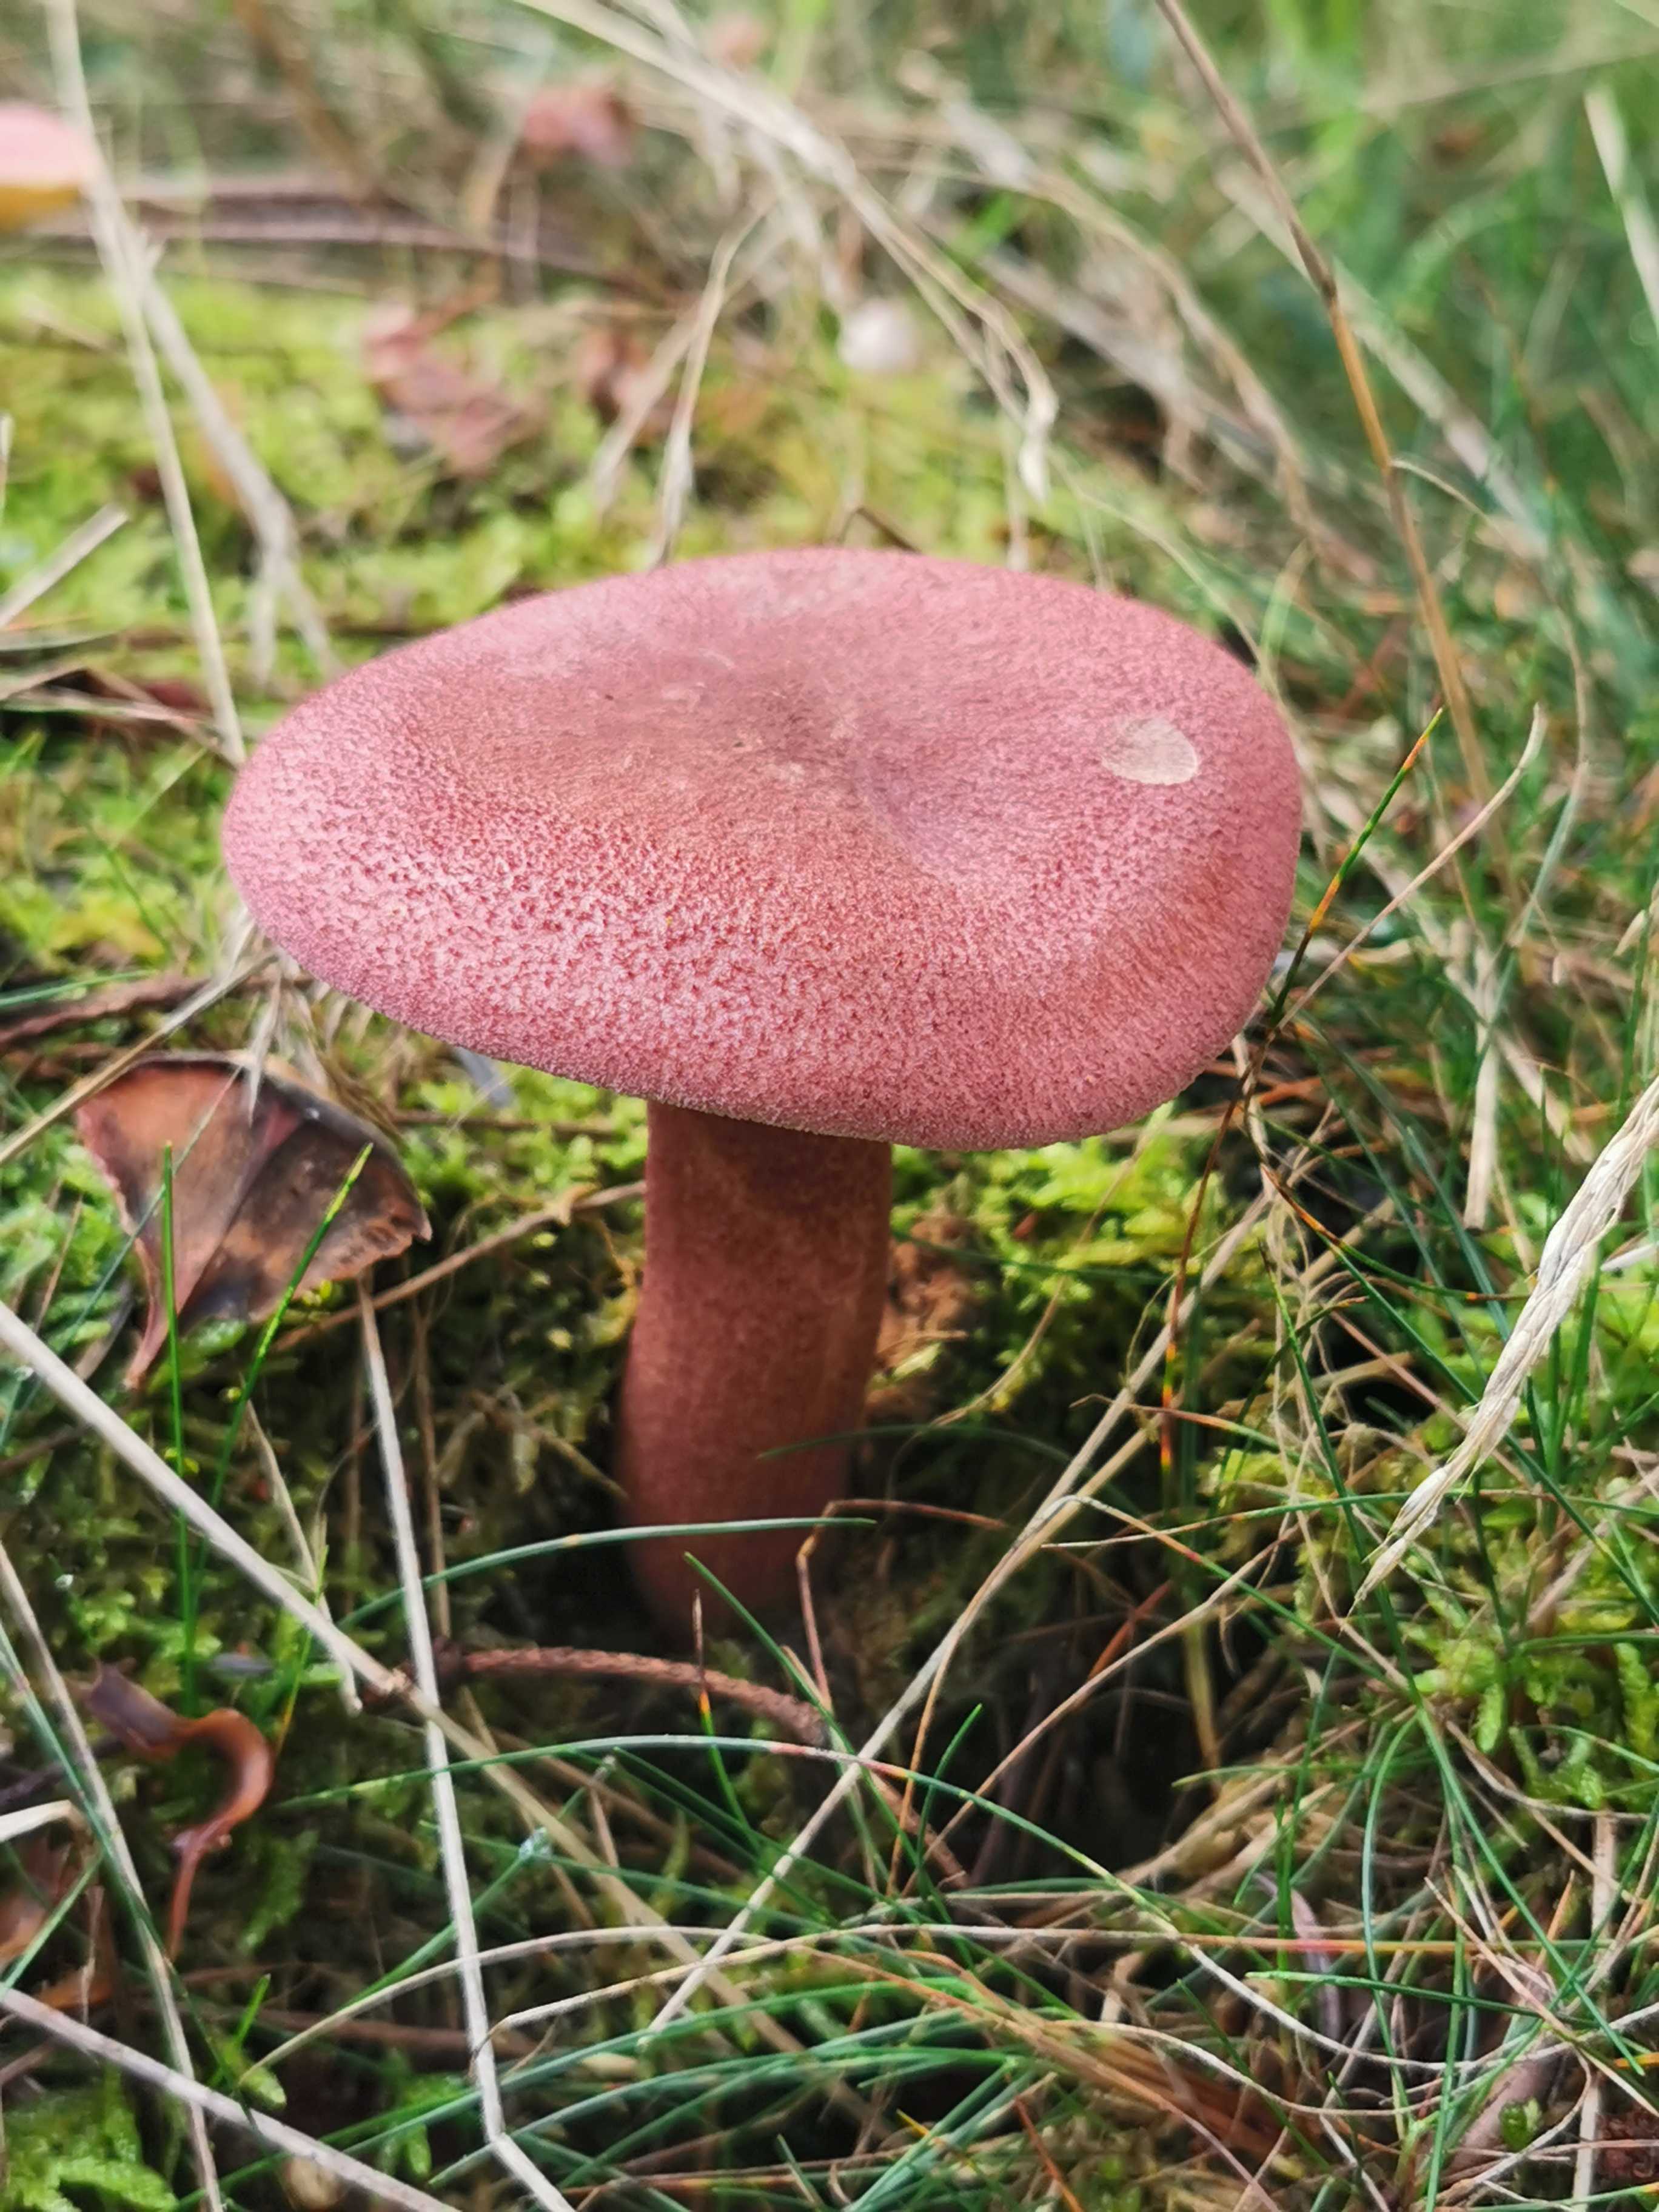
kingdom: Fungi
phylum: Basidiomycota
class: Agaricomycetes
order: Agaricales
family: Tricholomataceae
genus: Tricholomopsis
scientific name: Tricholomopsis rutilans
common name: purpur-væbnerhat
